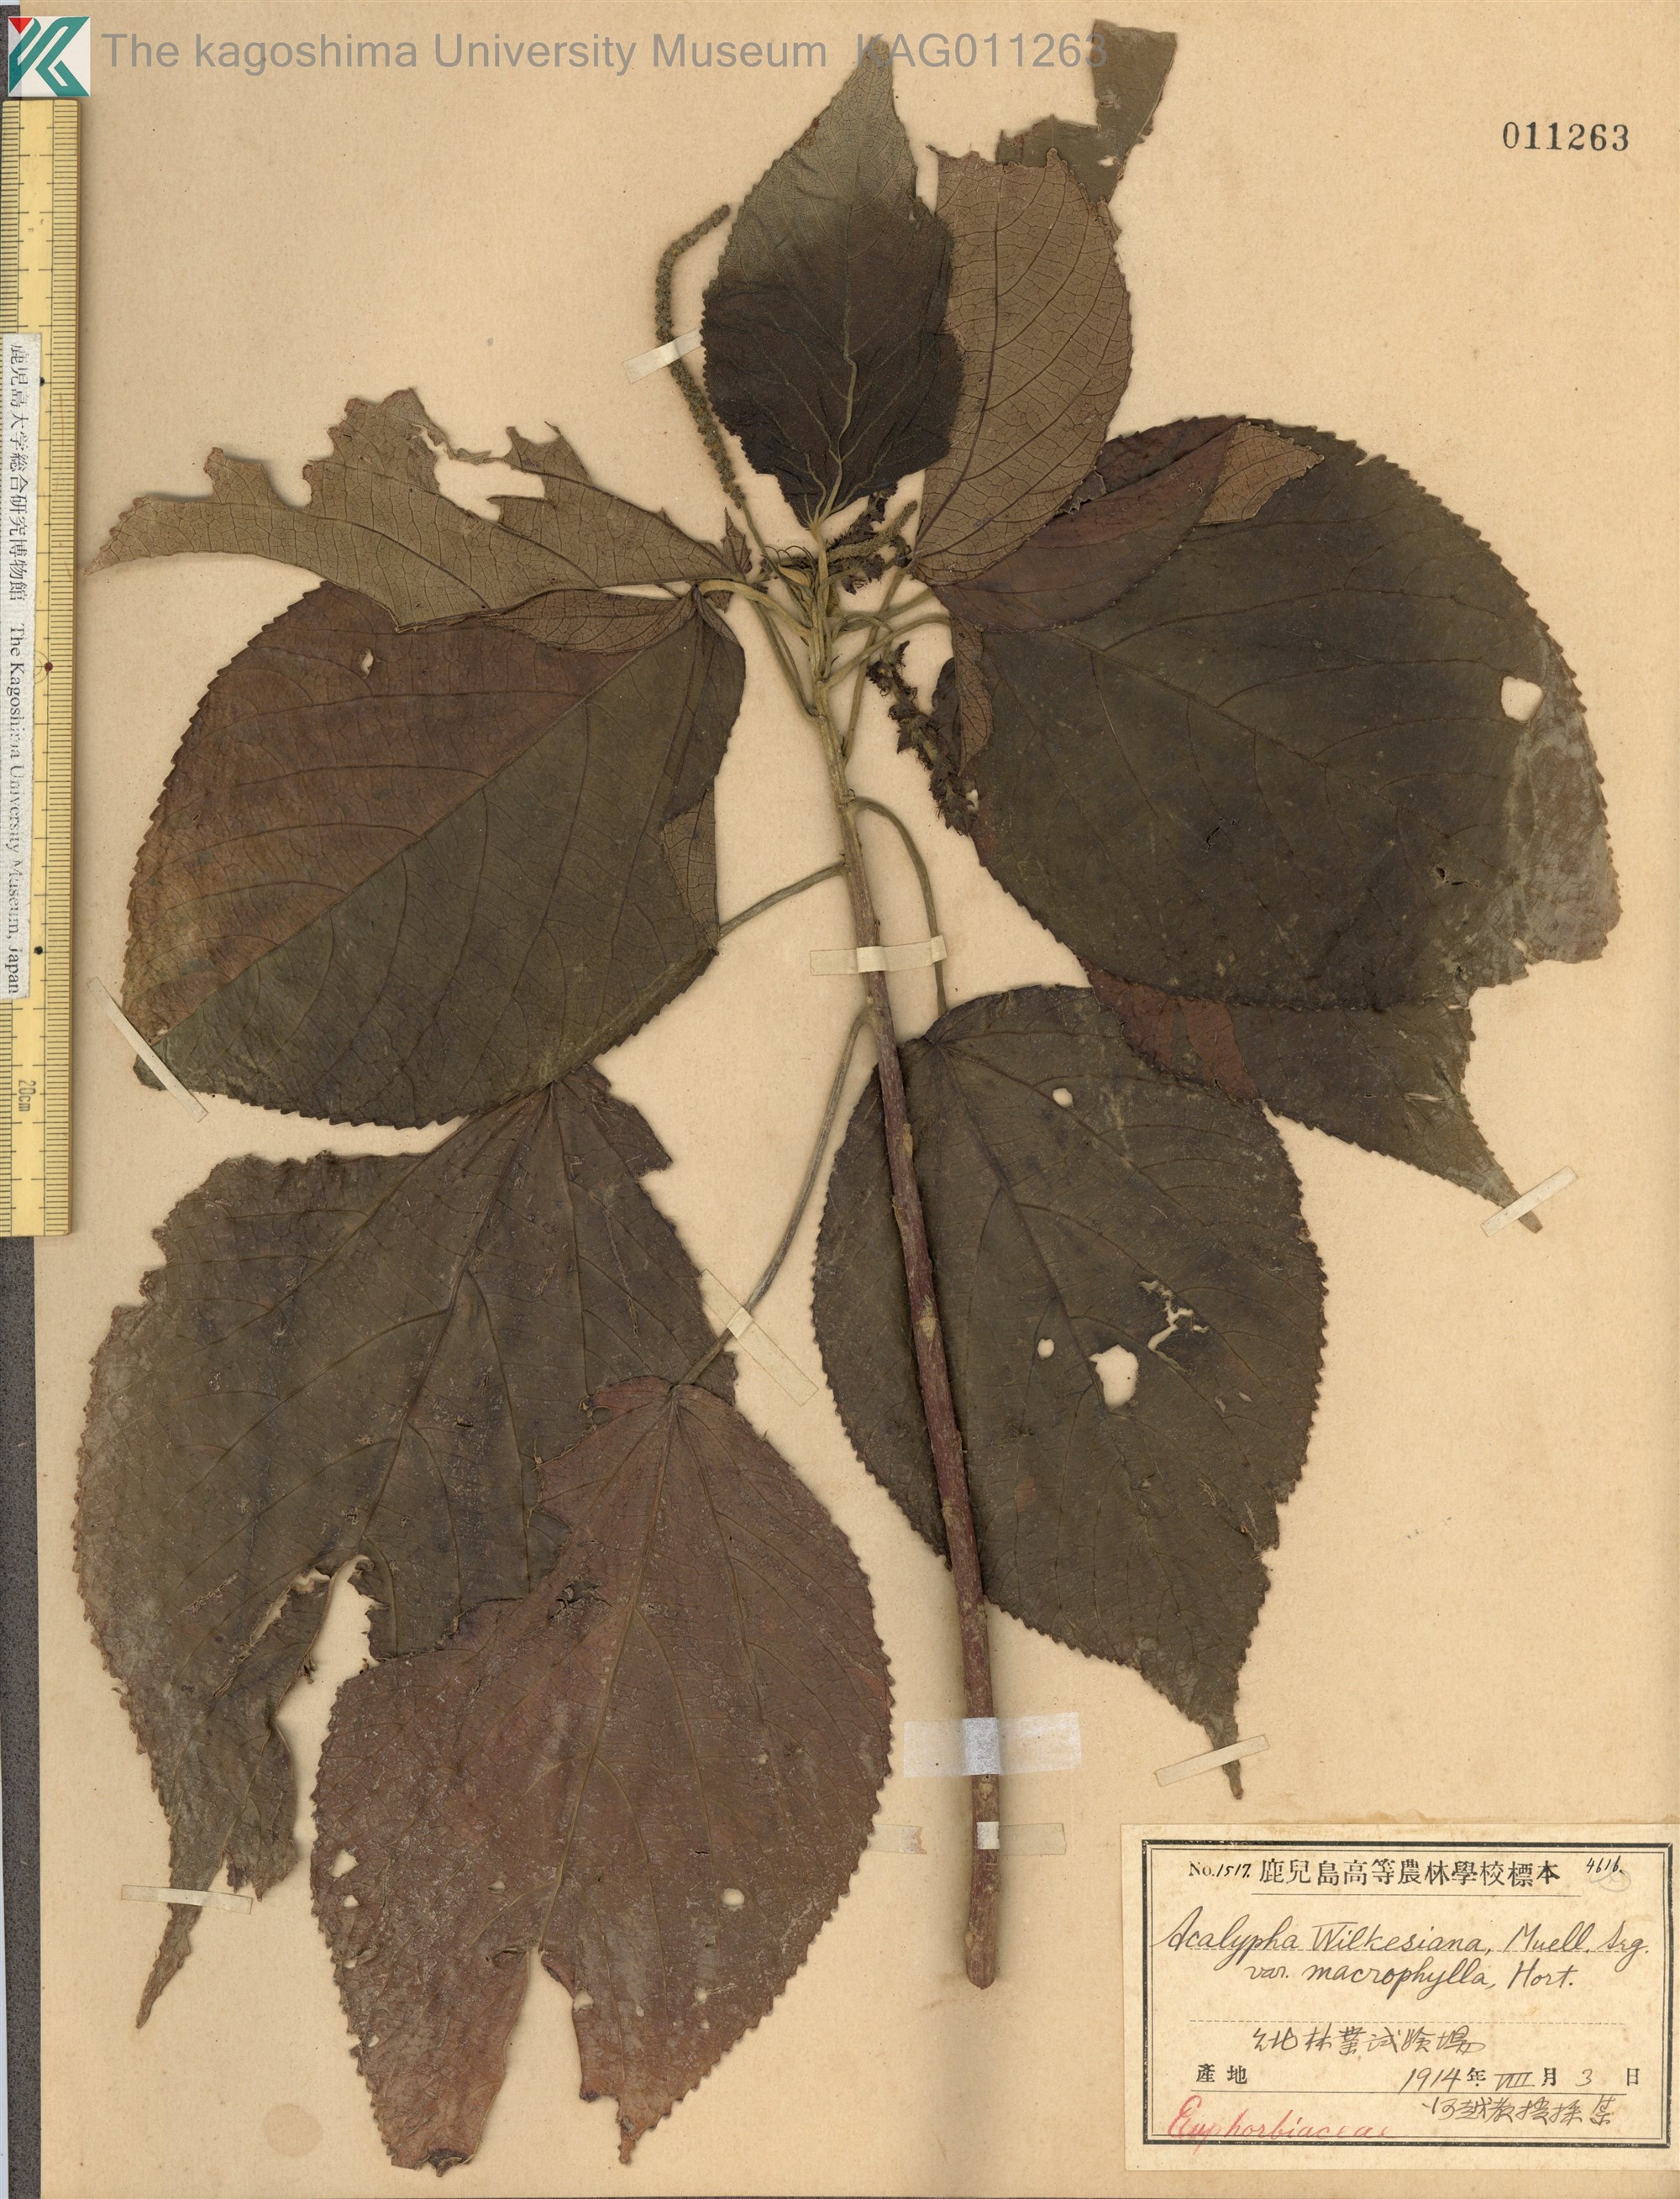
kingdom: Plantae
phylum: Tracheophyta
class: Magnoliopsida
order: Malpighiales
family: Euphorbiaceae
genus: Acalypha
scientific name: Acalypha wilkesiana
